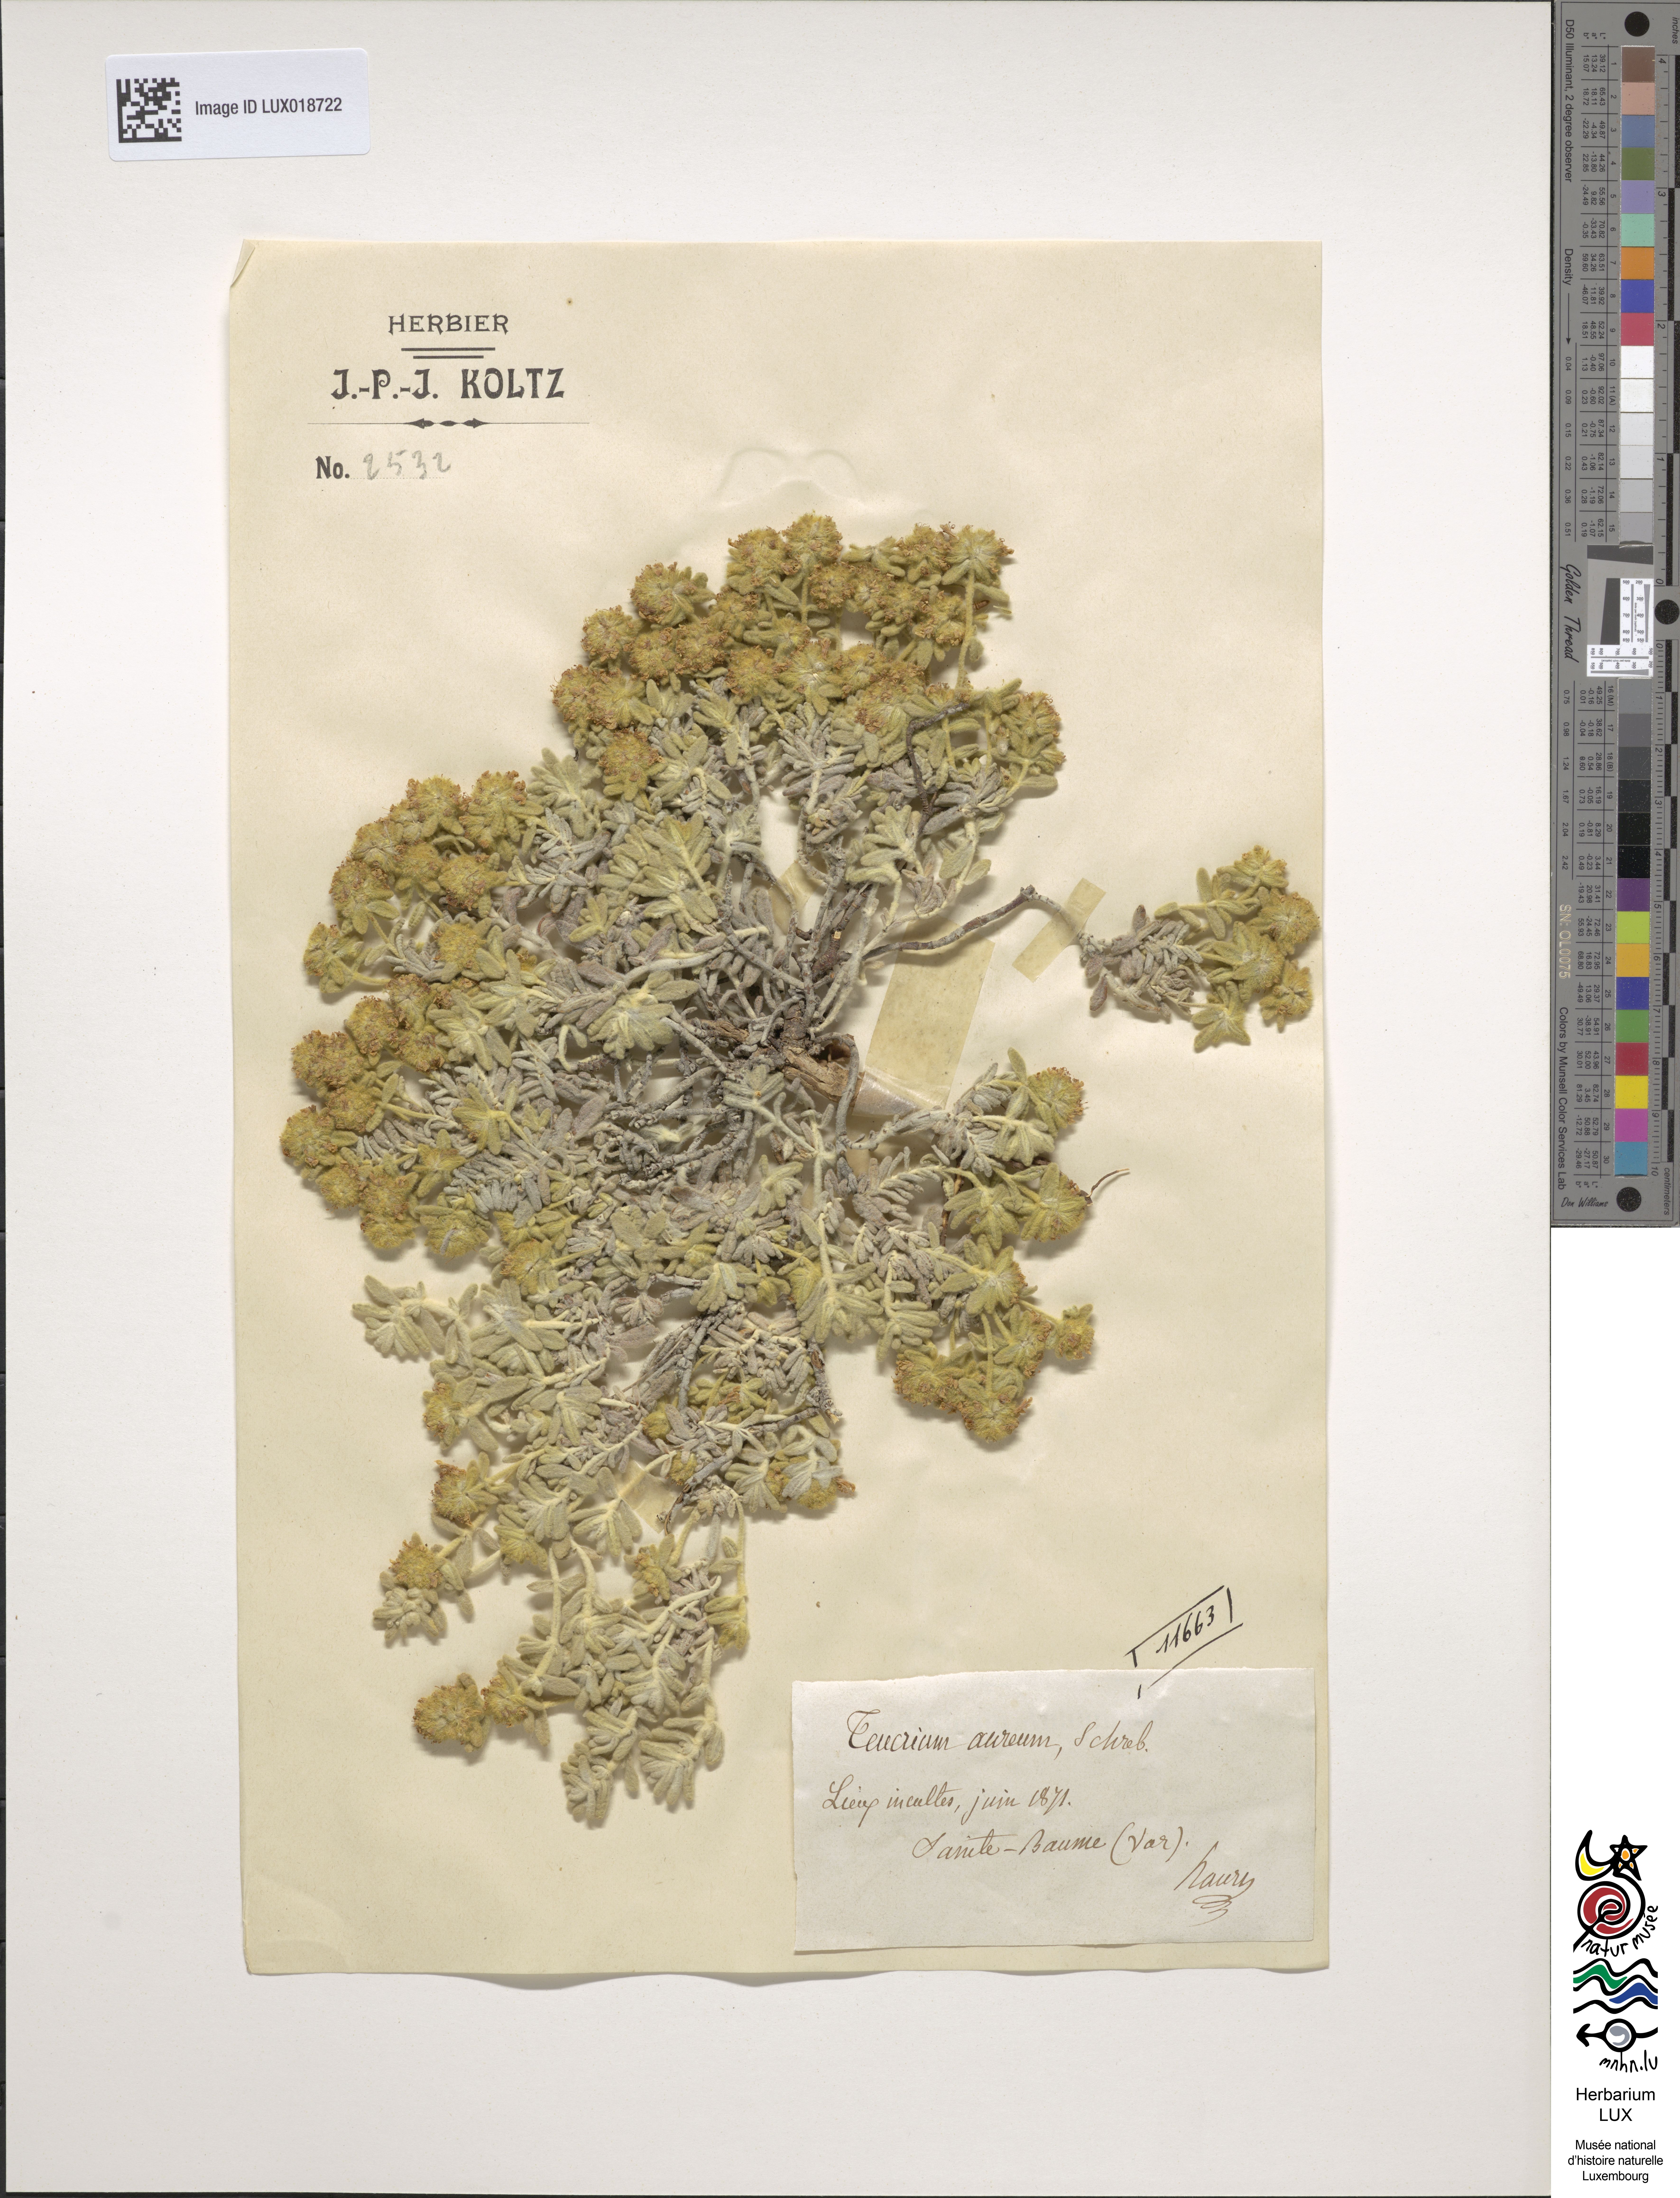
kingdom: Plantae
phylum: Tracheophyta
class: Magnoliopsida
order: Lamiales
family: Lamiaceae
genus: Teucrium
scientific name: Teucrium aureum
